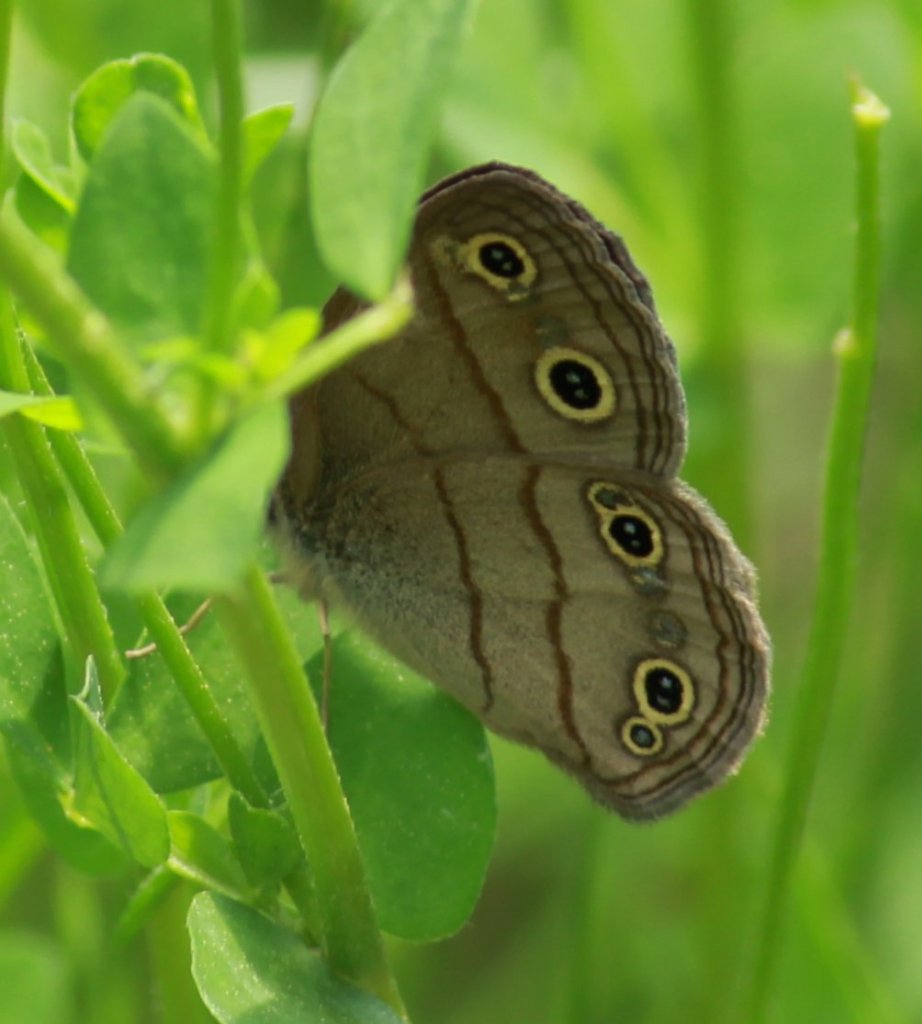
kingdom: Animalia
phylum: Arthropoda
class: Insecta
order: Lepidoptera
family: Nymphalidae
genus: Euptychia
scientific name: Euptychia cymela
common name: Little Wood Satyr
